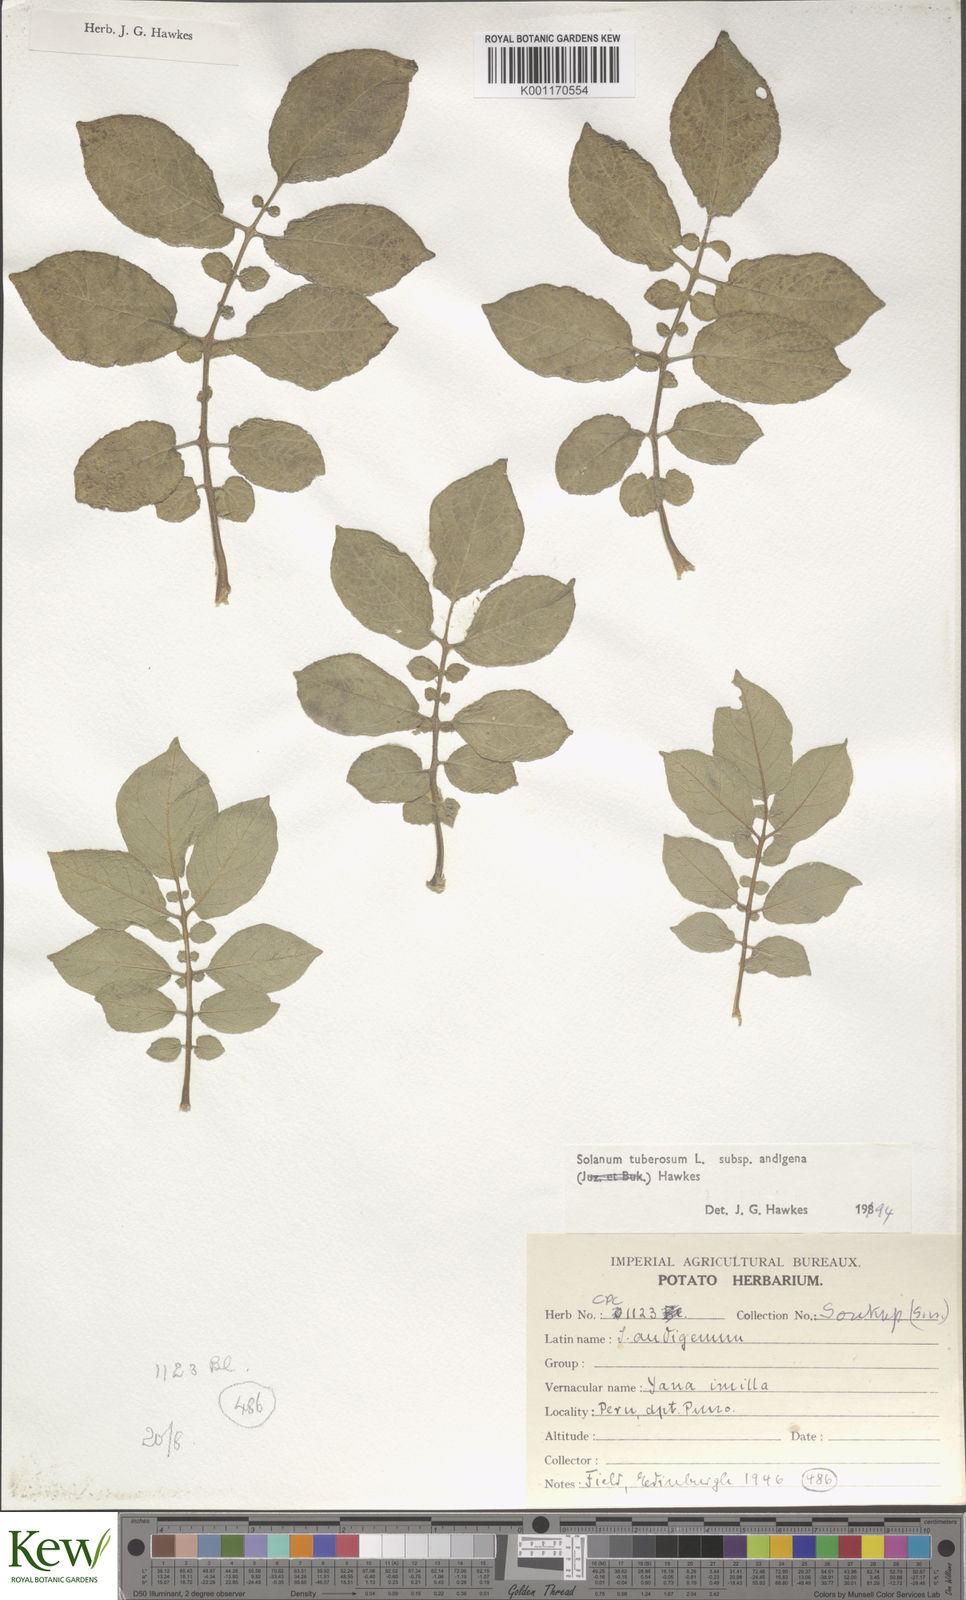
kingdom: Plantae
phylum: Tracheophyta
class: Magnoliopsida
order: Solanales
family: Solanaceae
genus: Solanum
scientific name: Solanum tuberosum
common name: Potato
